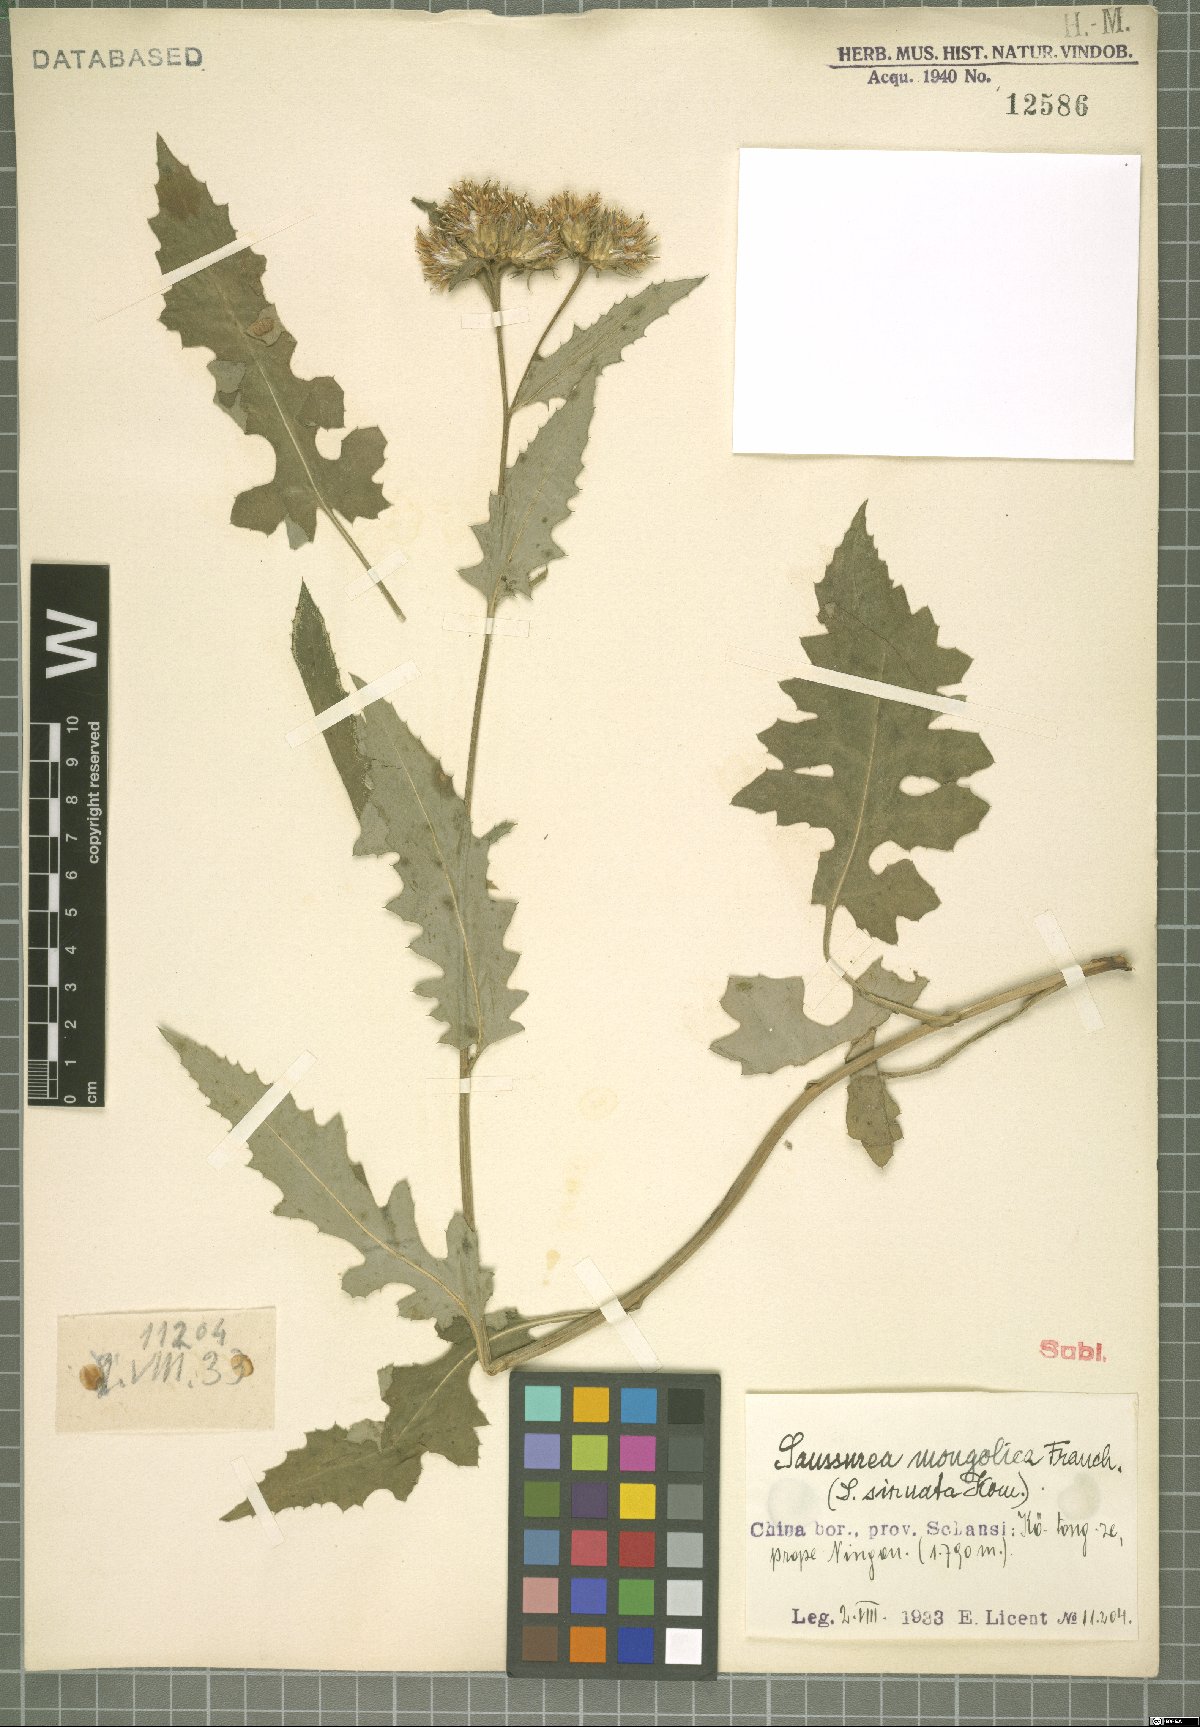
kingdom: Plantae
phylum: Tracheophyta
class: Magnoliopsida
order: Asterales
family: Asteraceae
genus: Saussurea
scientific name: Saussurea mongolica
